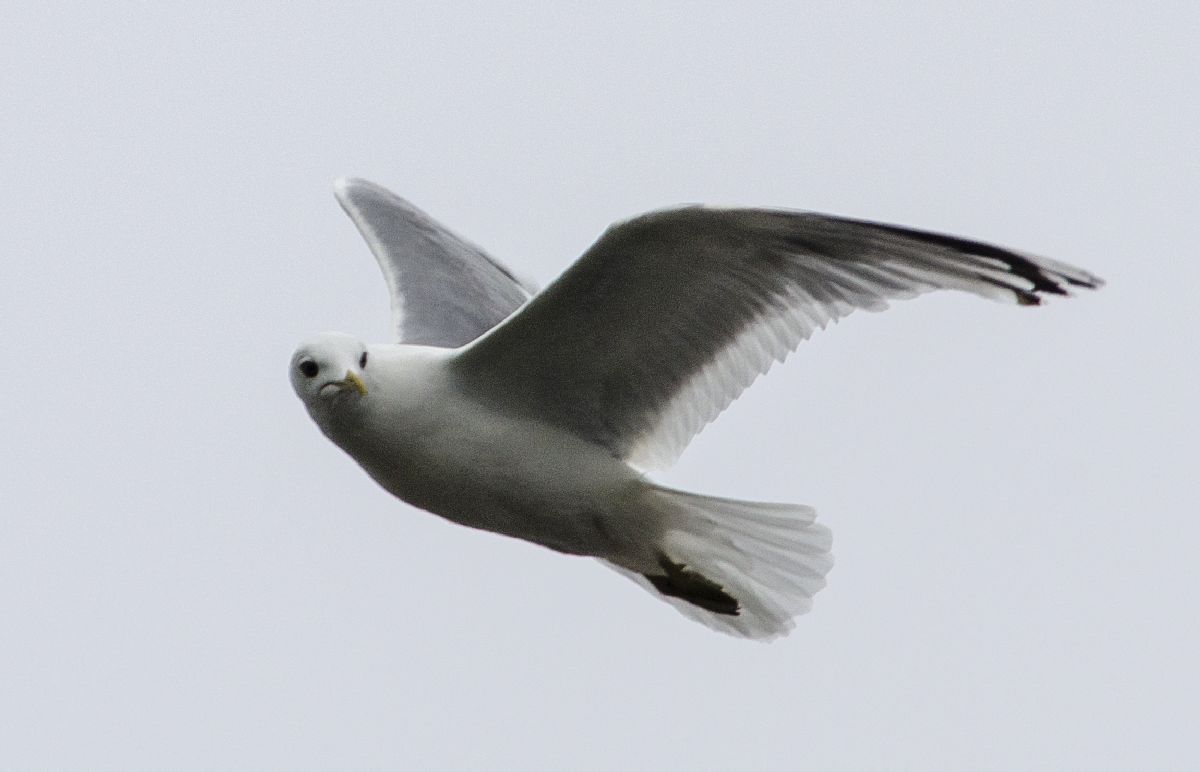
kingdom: Animalia
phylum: Chordata
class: Aves
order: Charadriiformes
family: Laridae
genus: Larus
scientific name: Larus canus
